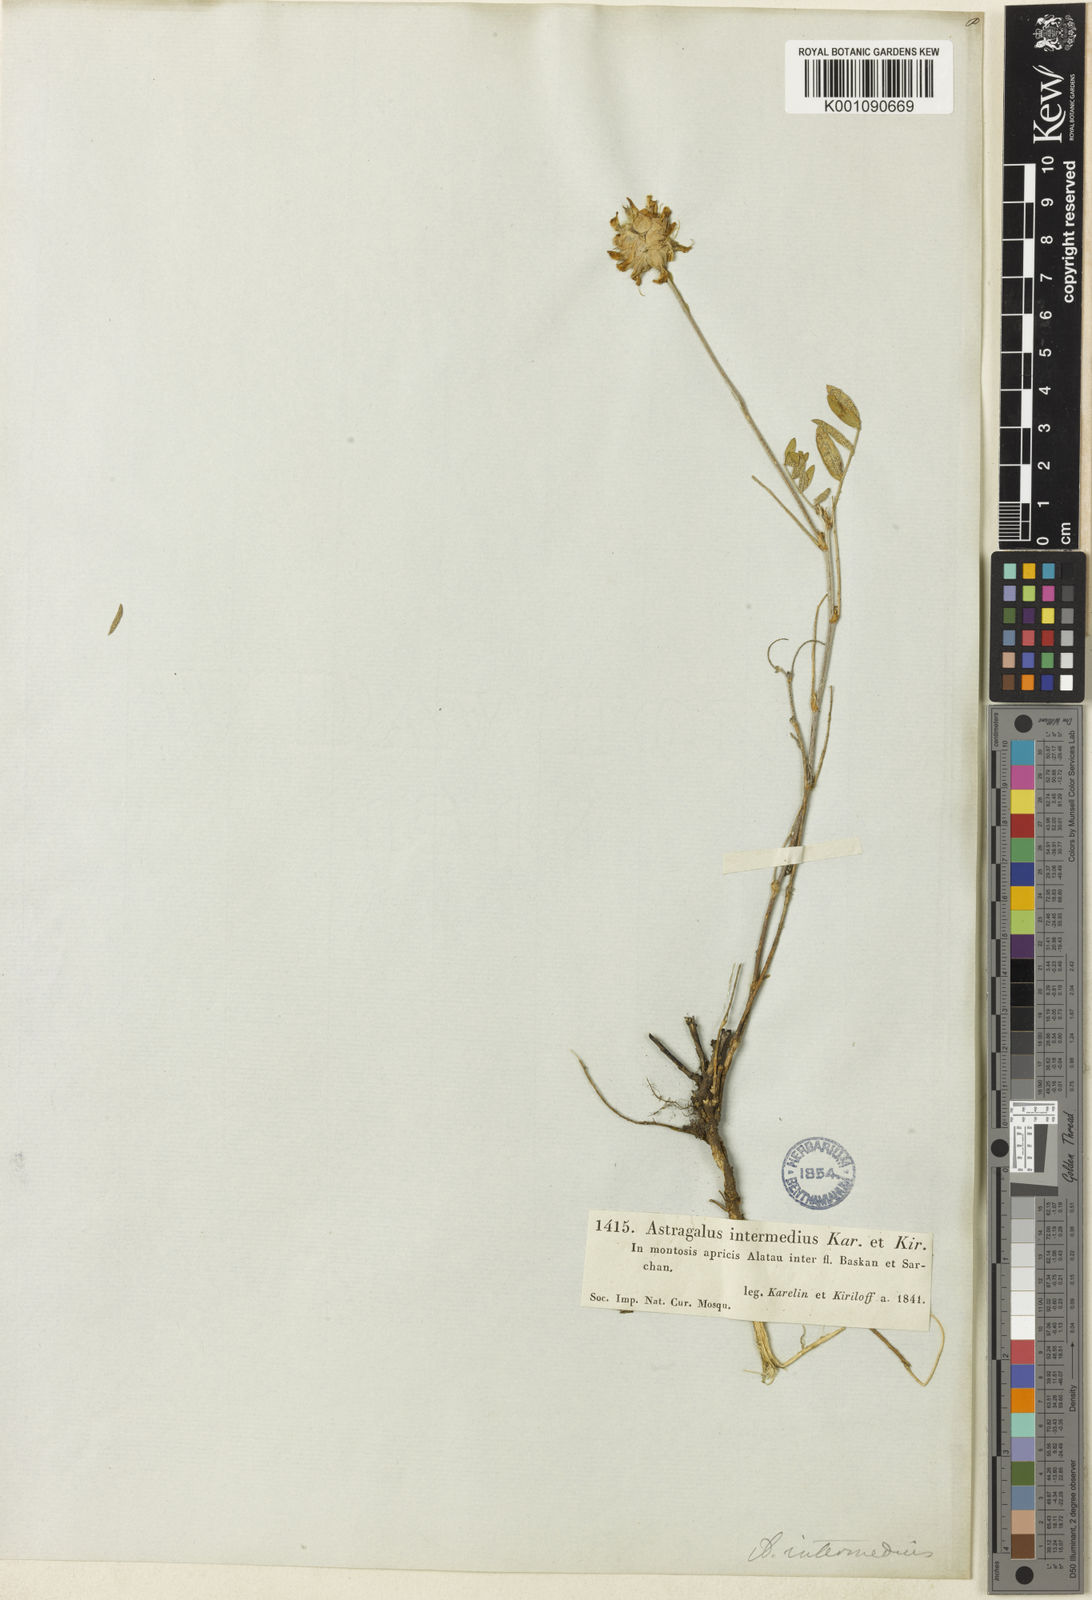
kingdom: Plantae
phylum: Tracheophyta
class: Magnoliopsida
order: Fabales
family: Fabaceae
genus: Astragalus
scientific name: Astragalus
